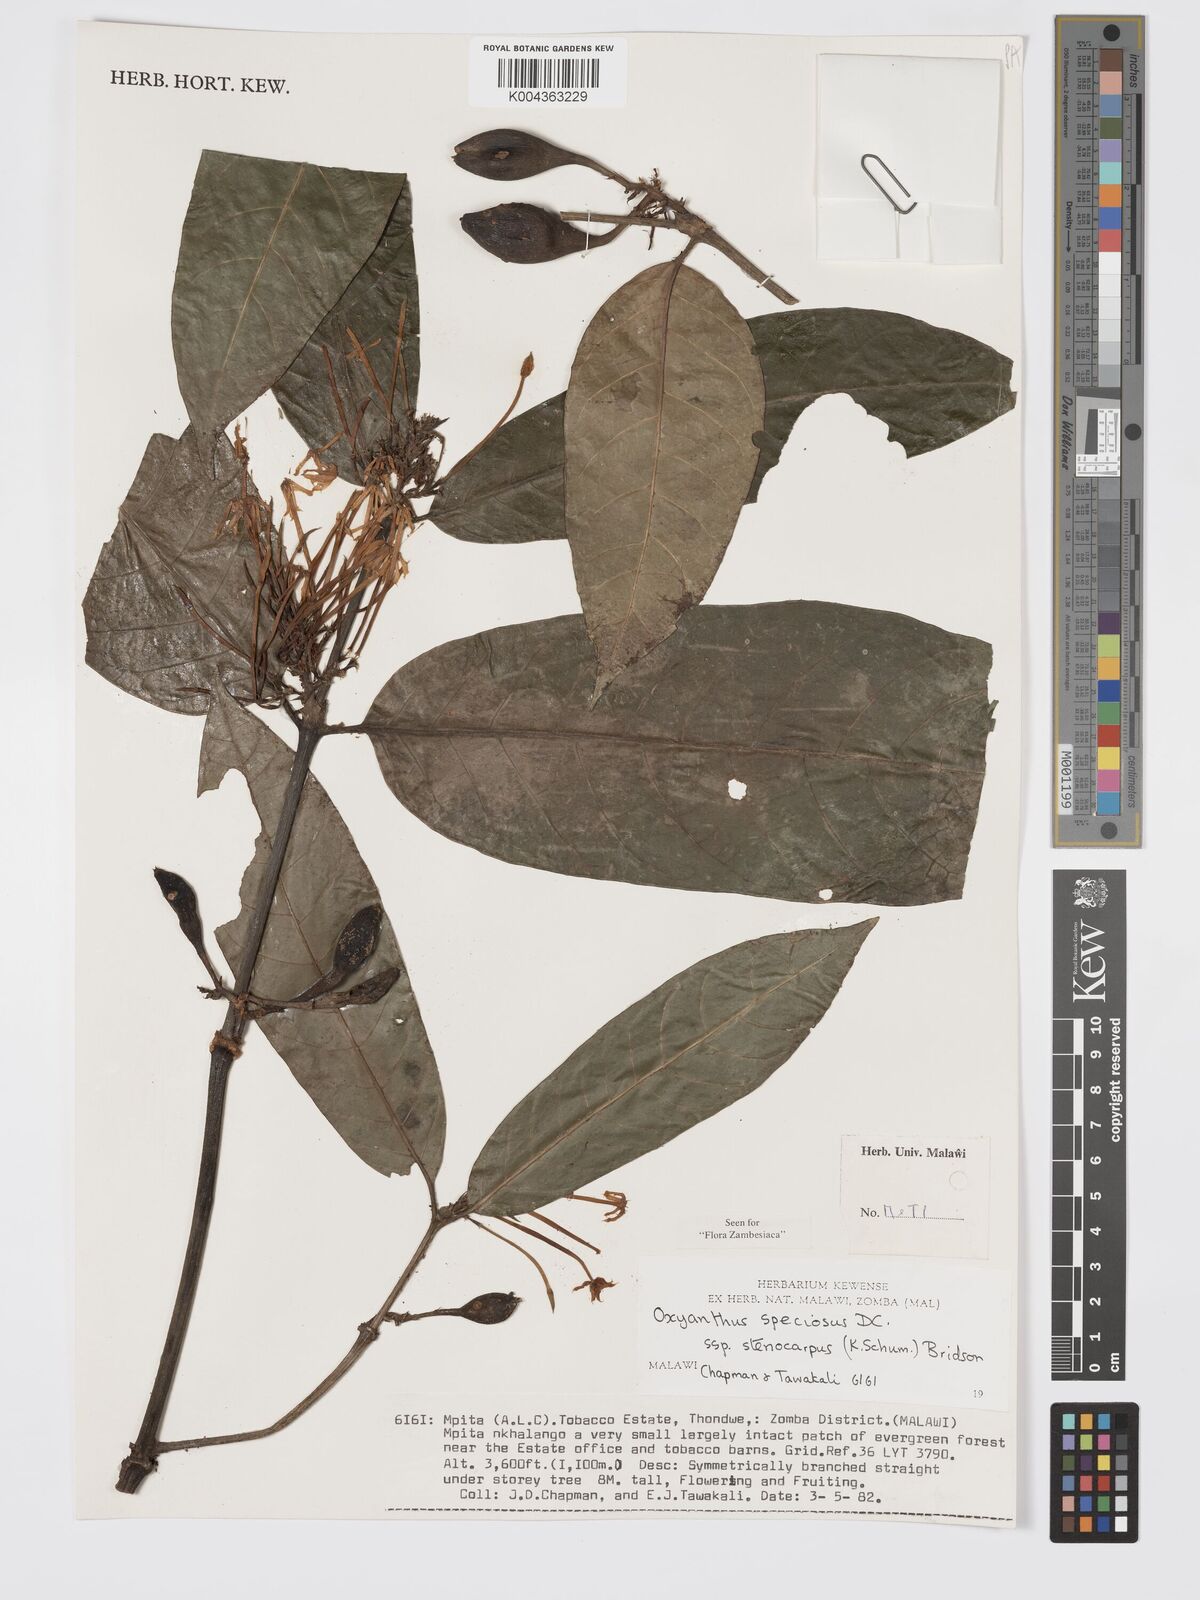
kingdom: Plantae
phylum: Tracheophyta
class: Magnoliopsida
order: Gentianales
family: Rubiaceae
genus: Oxyanthus
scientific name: Oxyanthus speciosus
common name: Whipstick loquat
